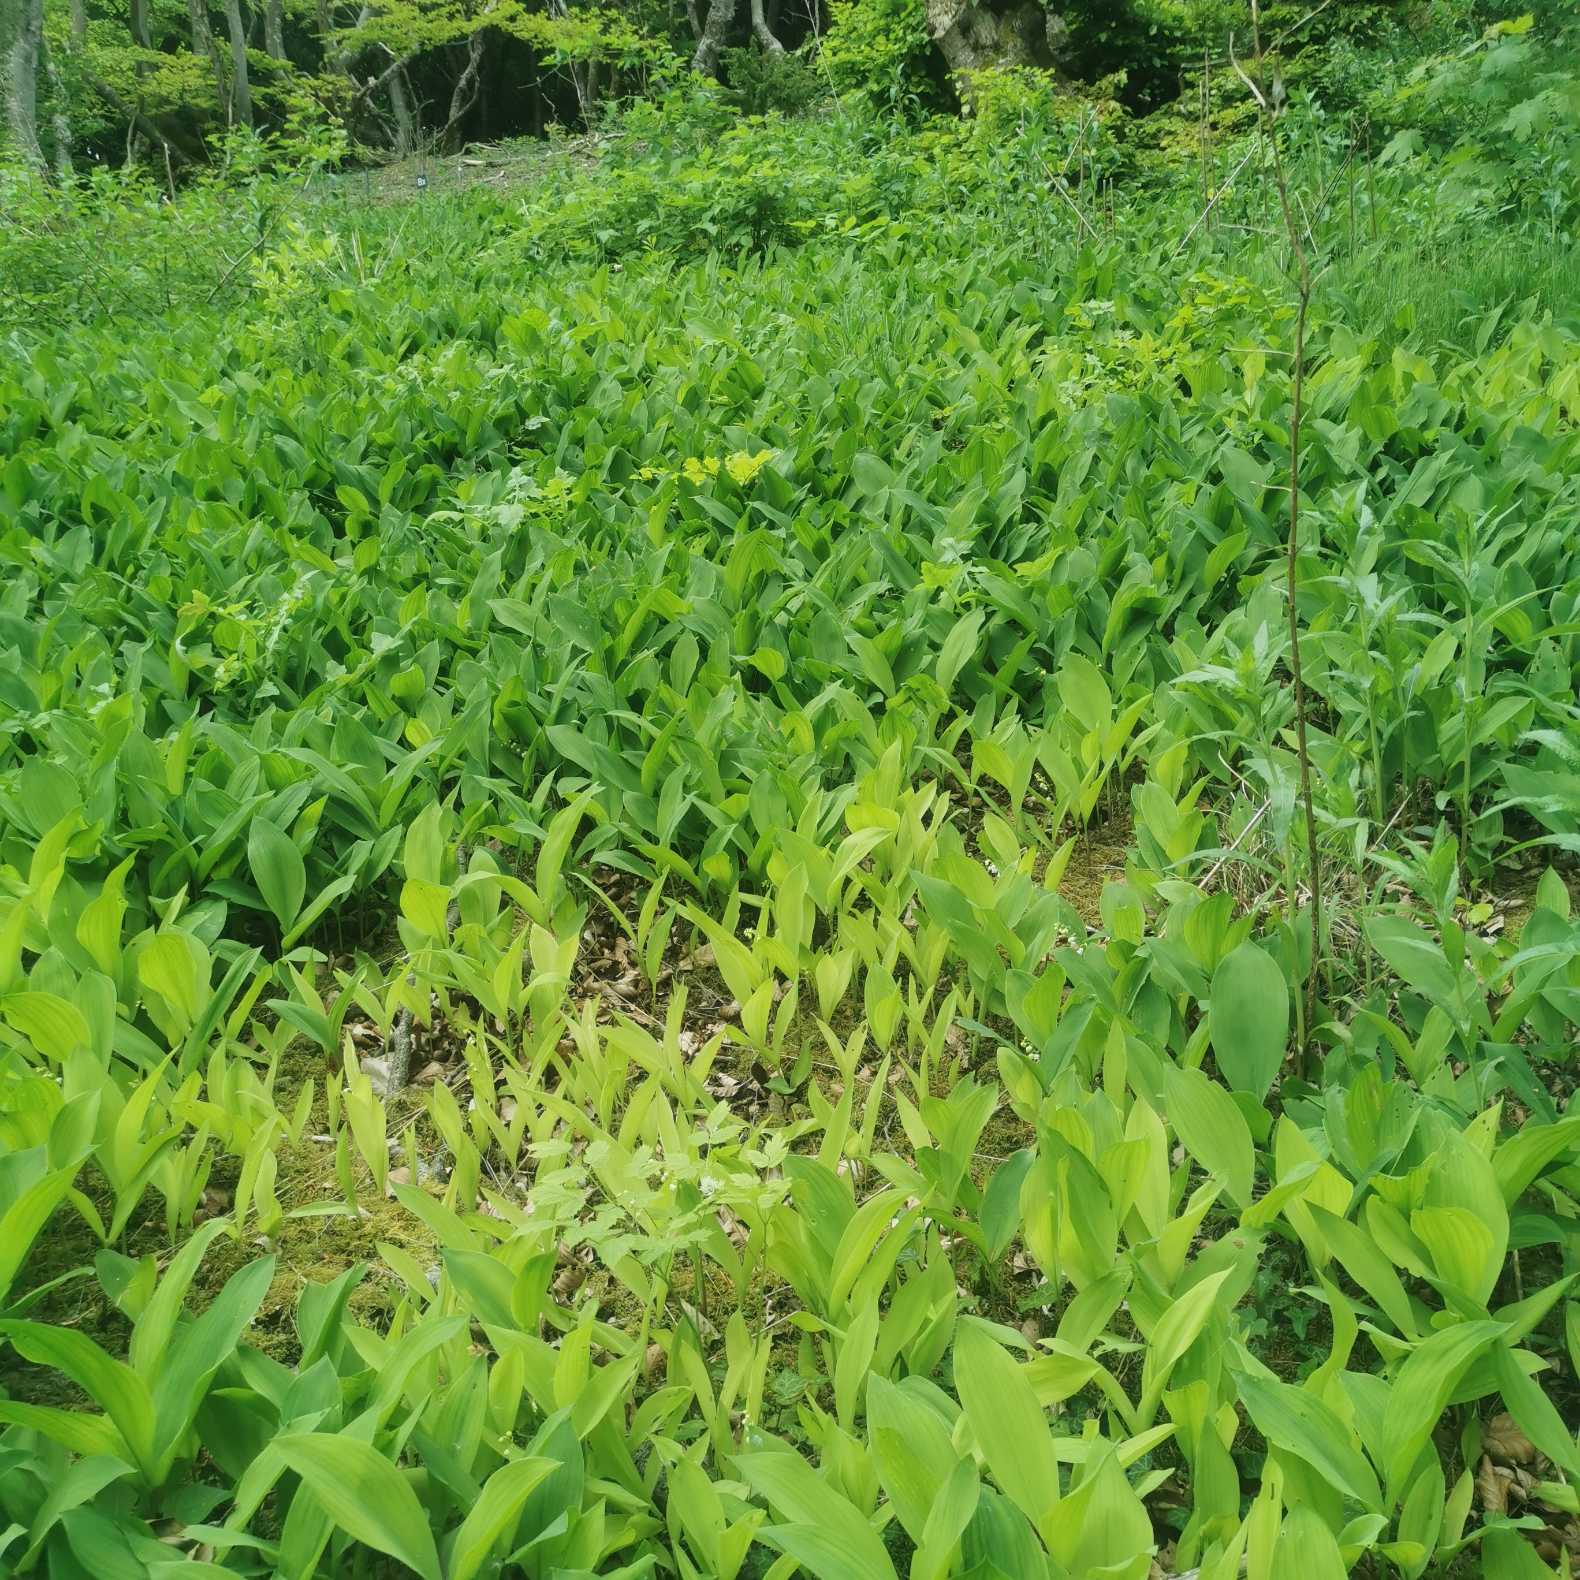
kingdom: Plantae
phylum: Tracheophyta
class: Liliopsida
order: Asparagales
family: Asparagaceae
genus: Convallaria
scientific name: Convallaria majalis
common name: Liljekonval
